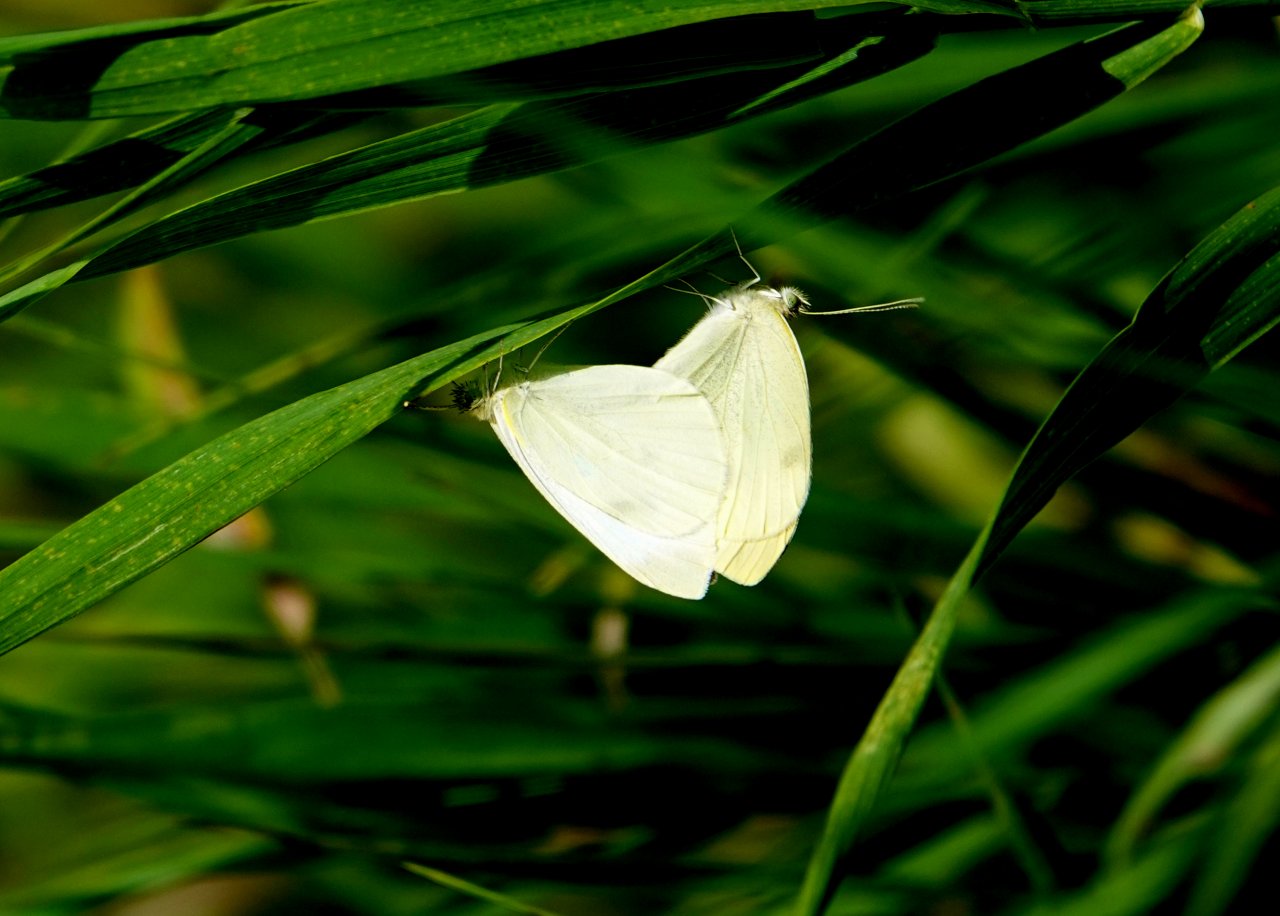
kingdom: Animalia
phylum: Arthropoda
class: Insecta
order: Lepidoptera
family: Pieridae
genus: Pieris
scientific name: Pieris rapae
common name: Cabbage White
